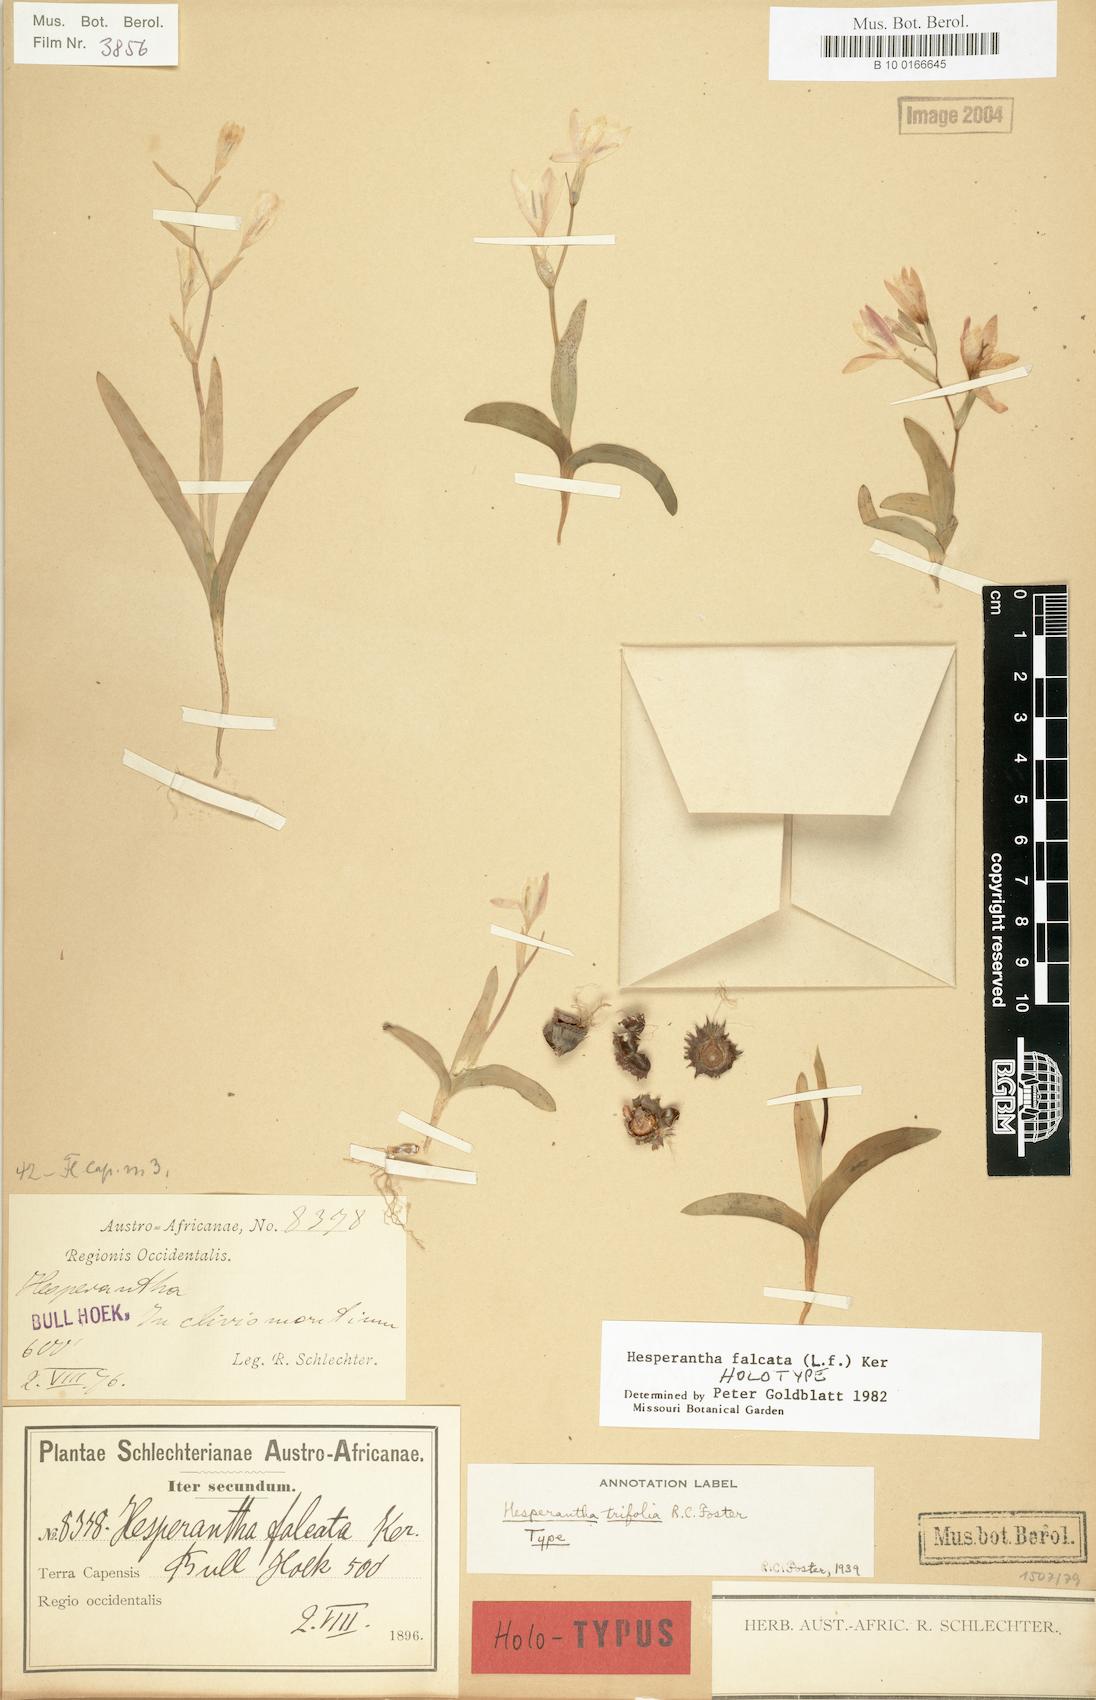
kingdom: Plantae
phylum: Tracheophyta
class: Liliopsida
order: Asparagales
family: Iridaceae
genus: Hesperantha
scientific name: Hesperantha falcata
